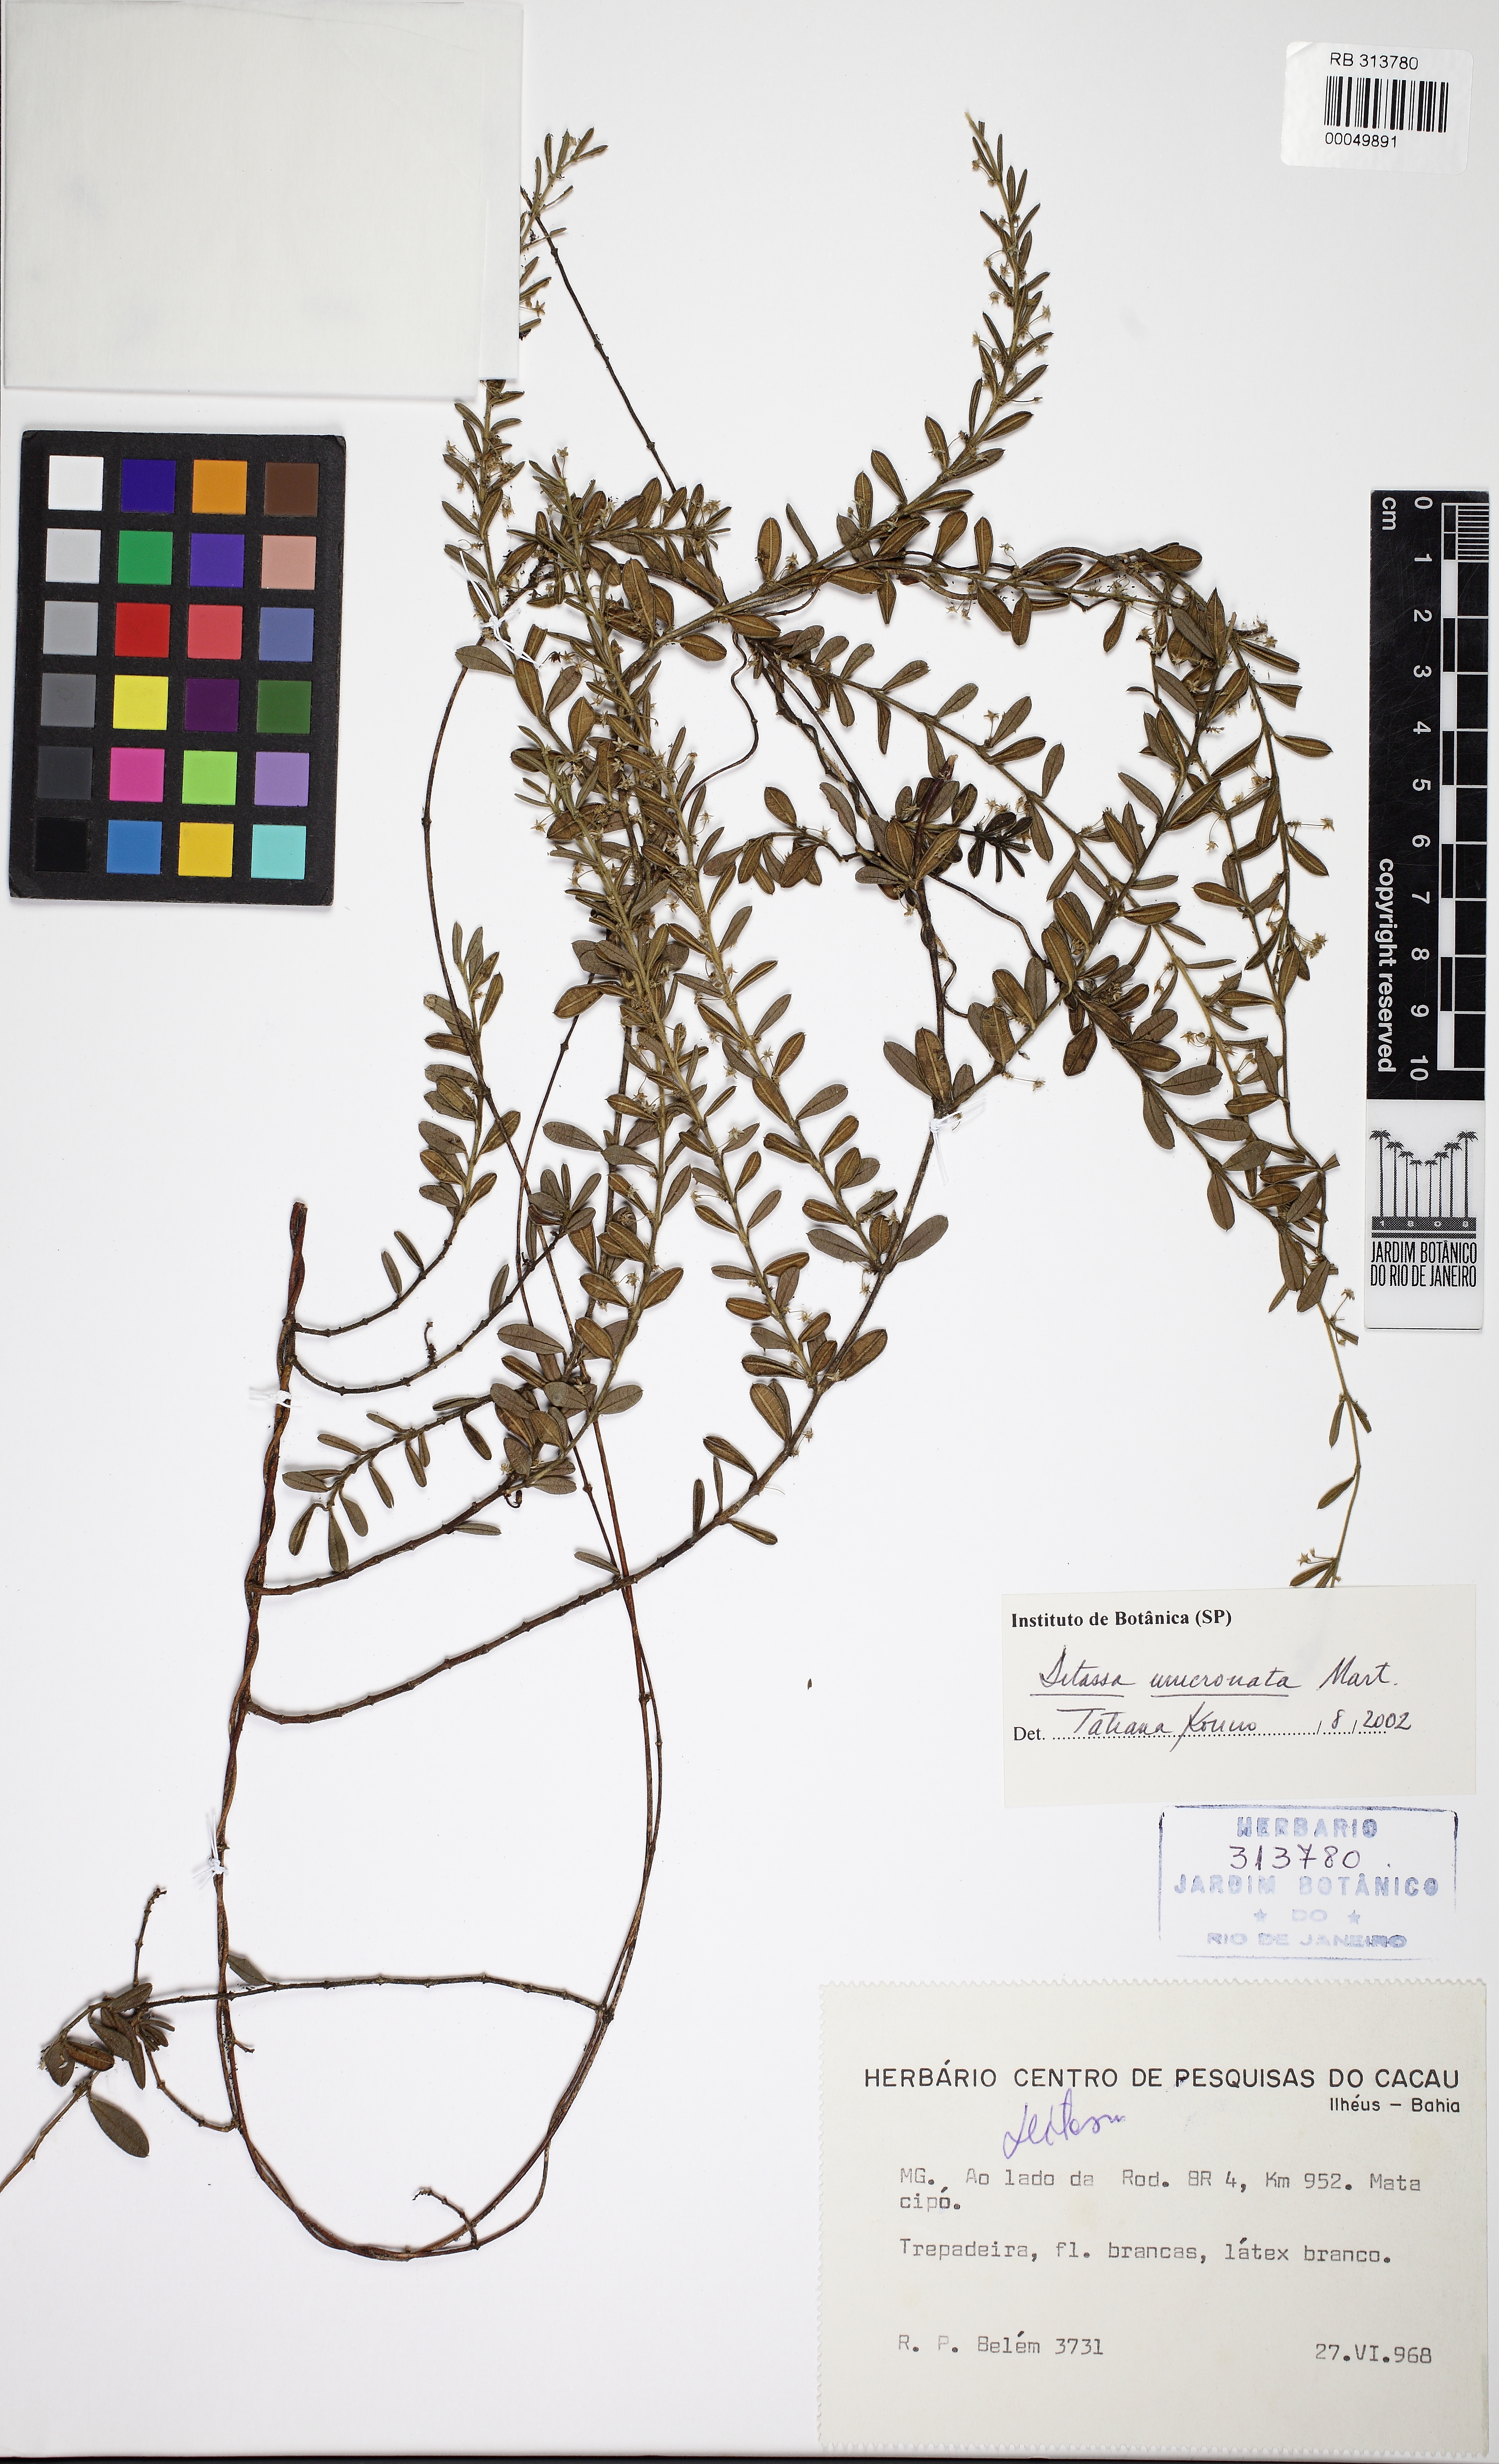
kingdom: Plantae
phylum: Tracheophyta
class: Magnoliopsida
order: Gentianales
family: Apocynaceae
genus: Ditassa
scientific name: Ditassa mucronata
